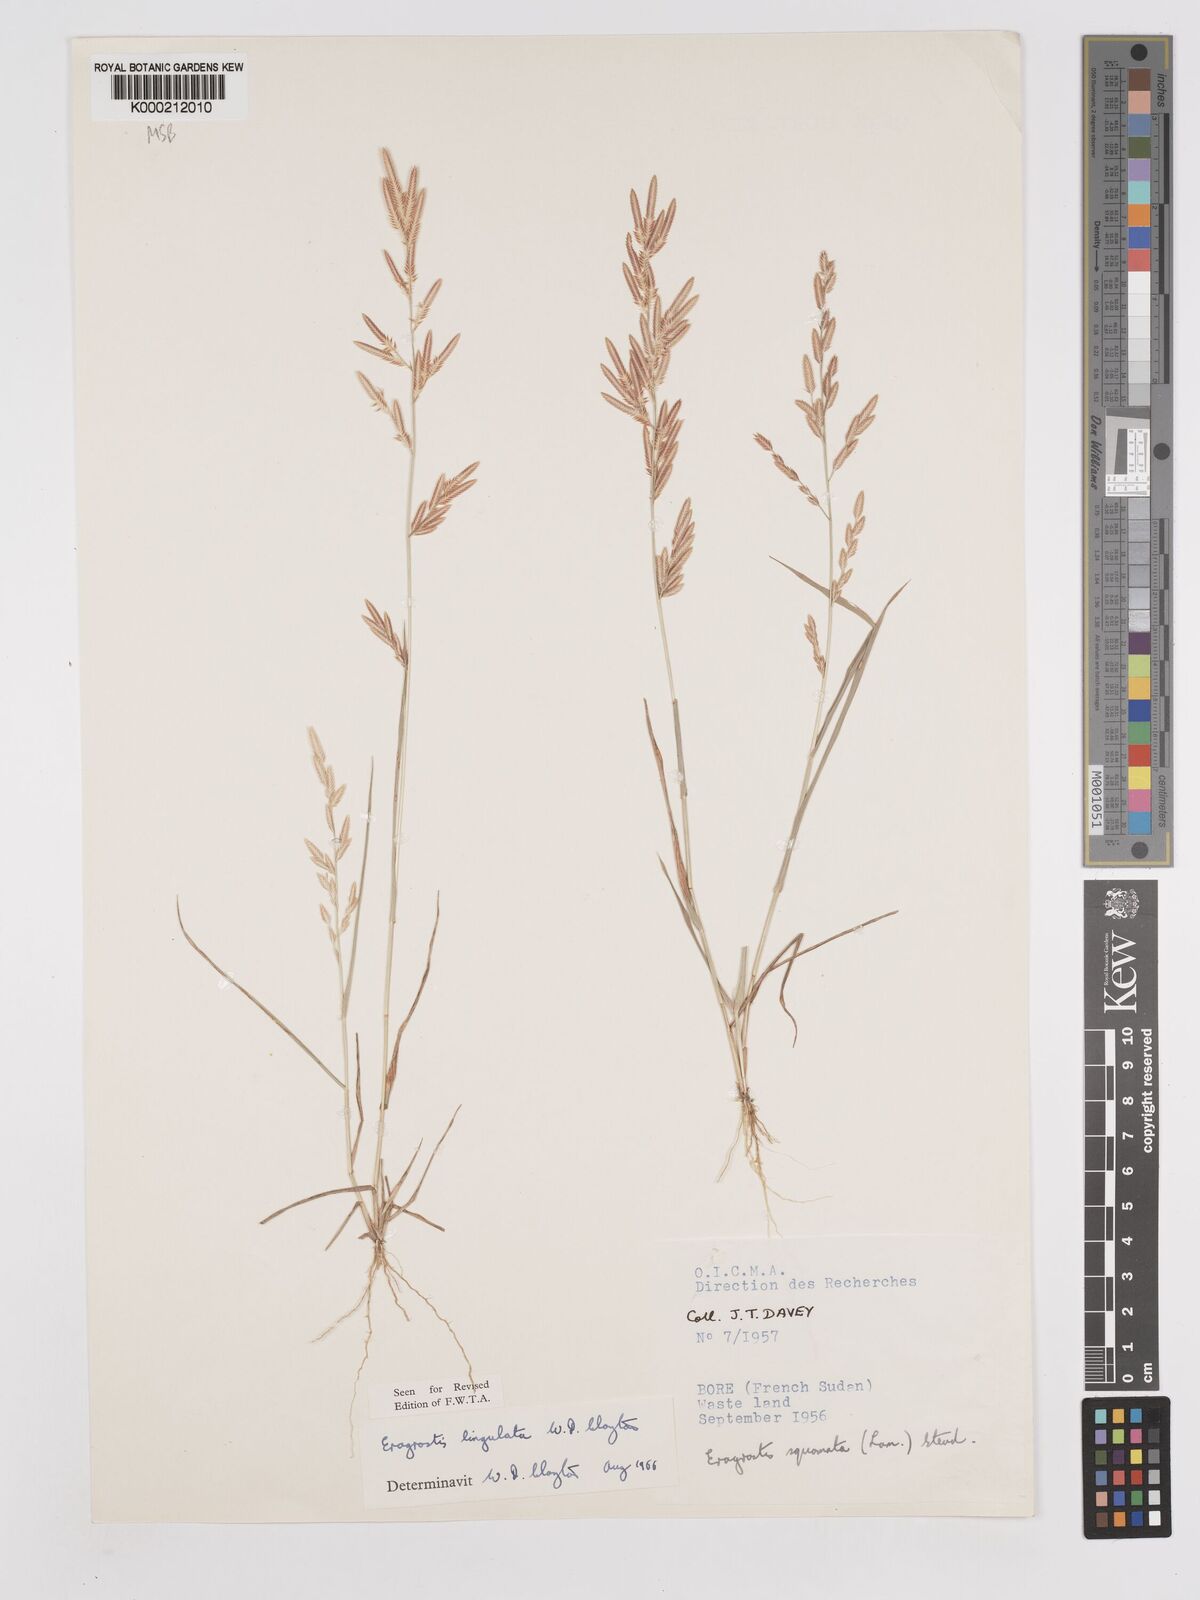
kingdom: Plantae
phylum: Tracheophyta
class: Liliopsida
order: Poales
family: Poaceae
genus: Eragrostis
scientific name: Eragrostis lingulata
